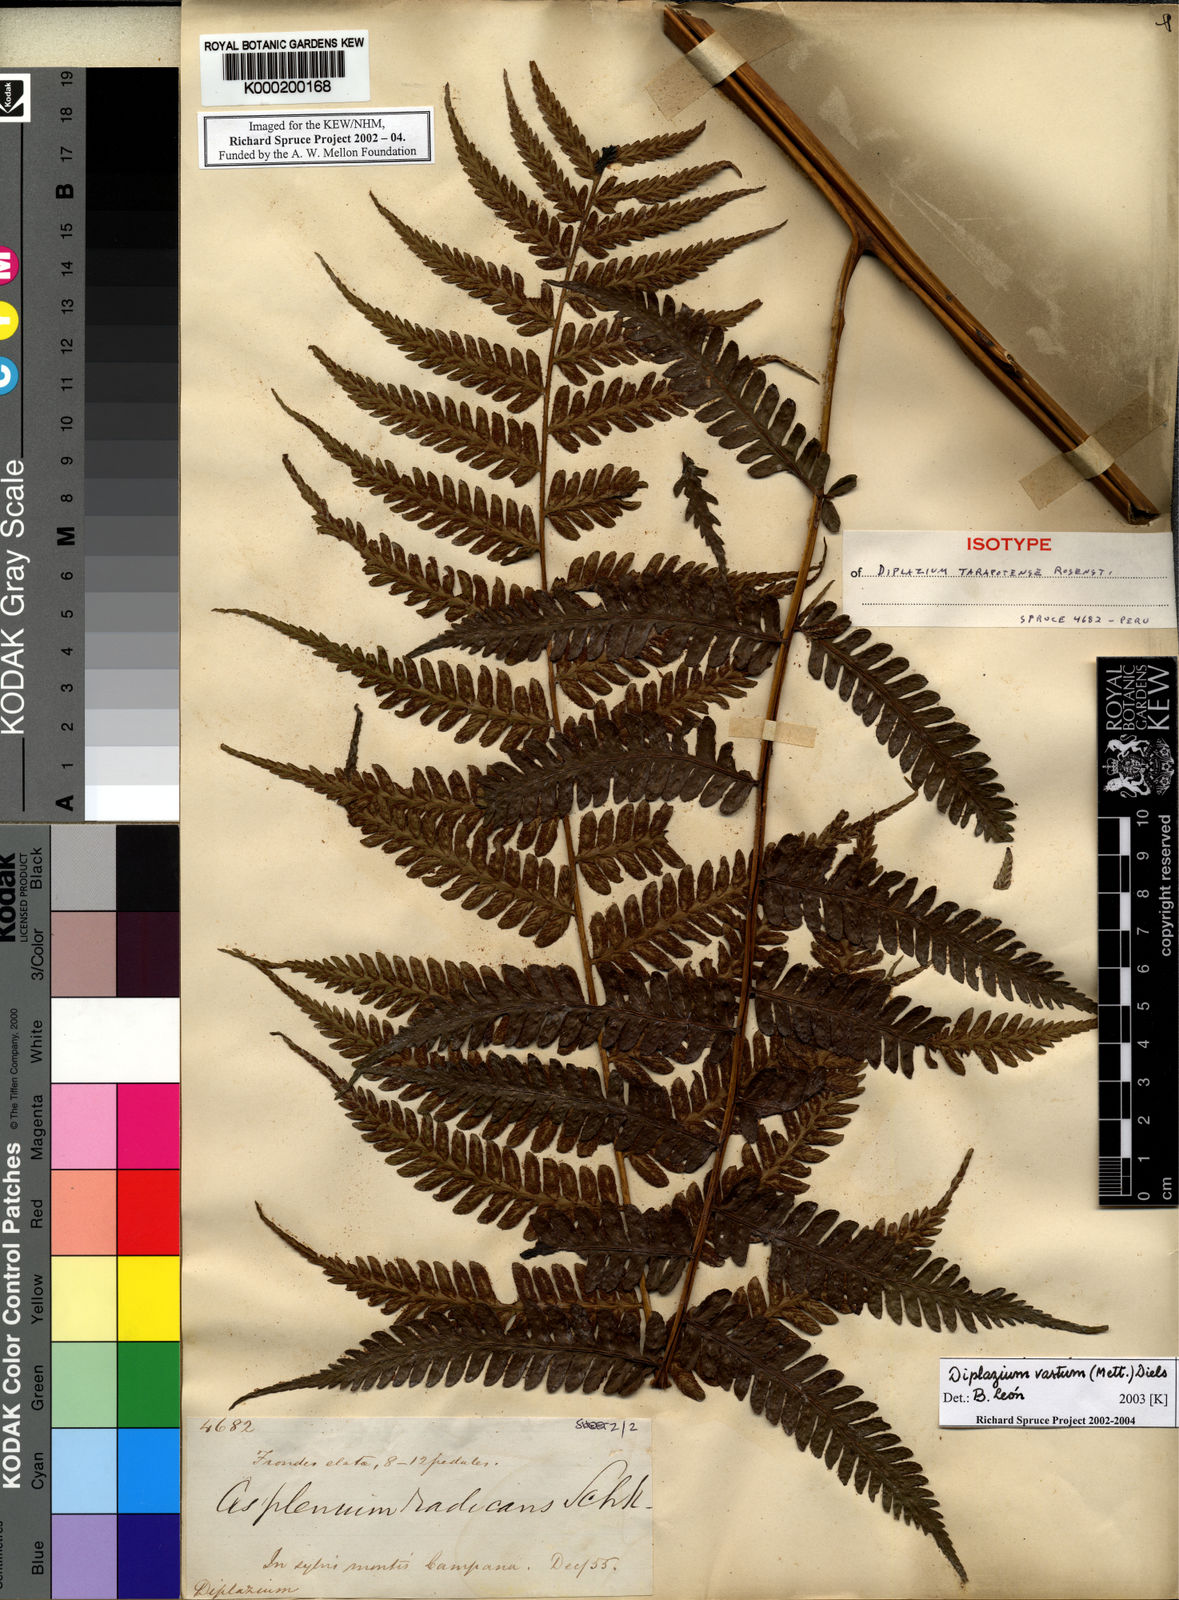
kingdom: Plantae
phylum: Tracheophyta
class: Polypodiopsida
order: Polypodiales
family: Athyriaceae
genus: Diplazium
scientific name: Diplazium vastum
